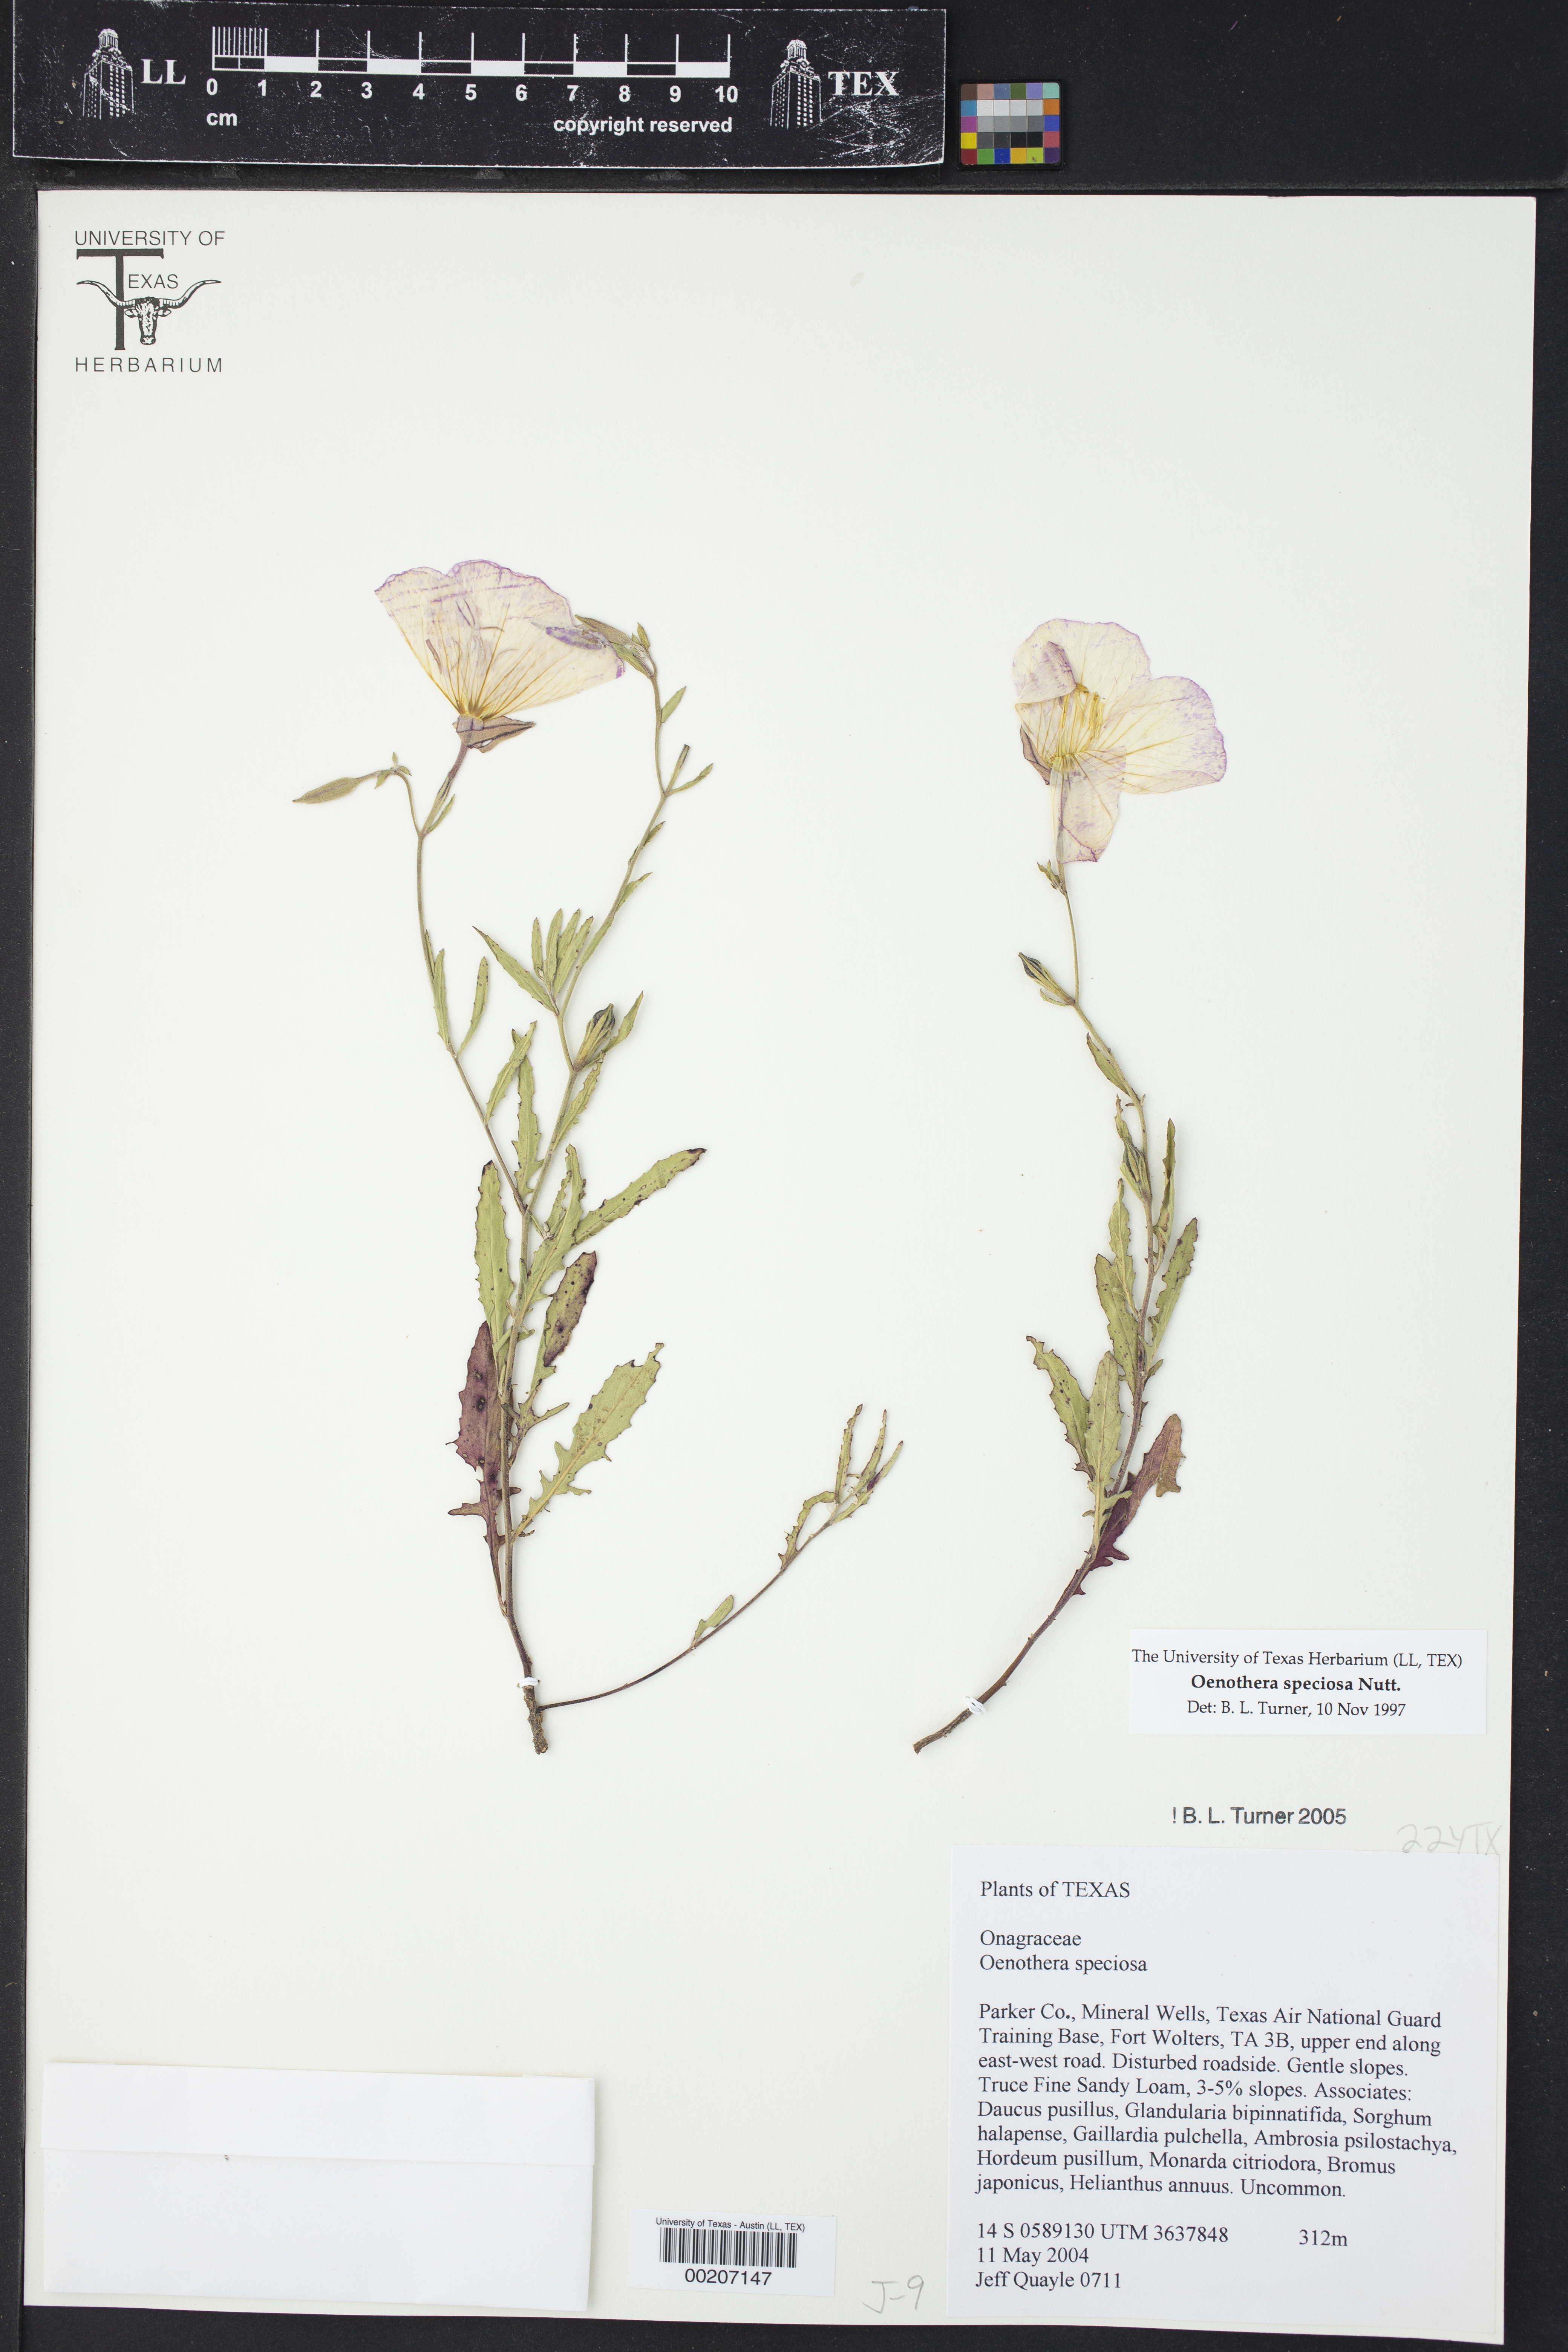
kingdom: Plantae
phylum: Tracheophyta
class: Magnoliopsida
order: Myrtales
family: Onagraceae
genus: Oenothera
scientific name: Oenothera speciosa
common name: White evening-primrose
